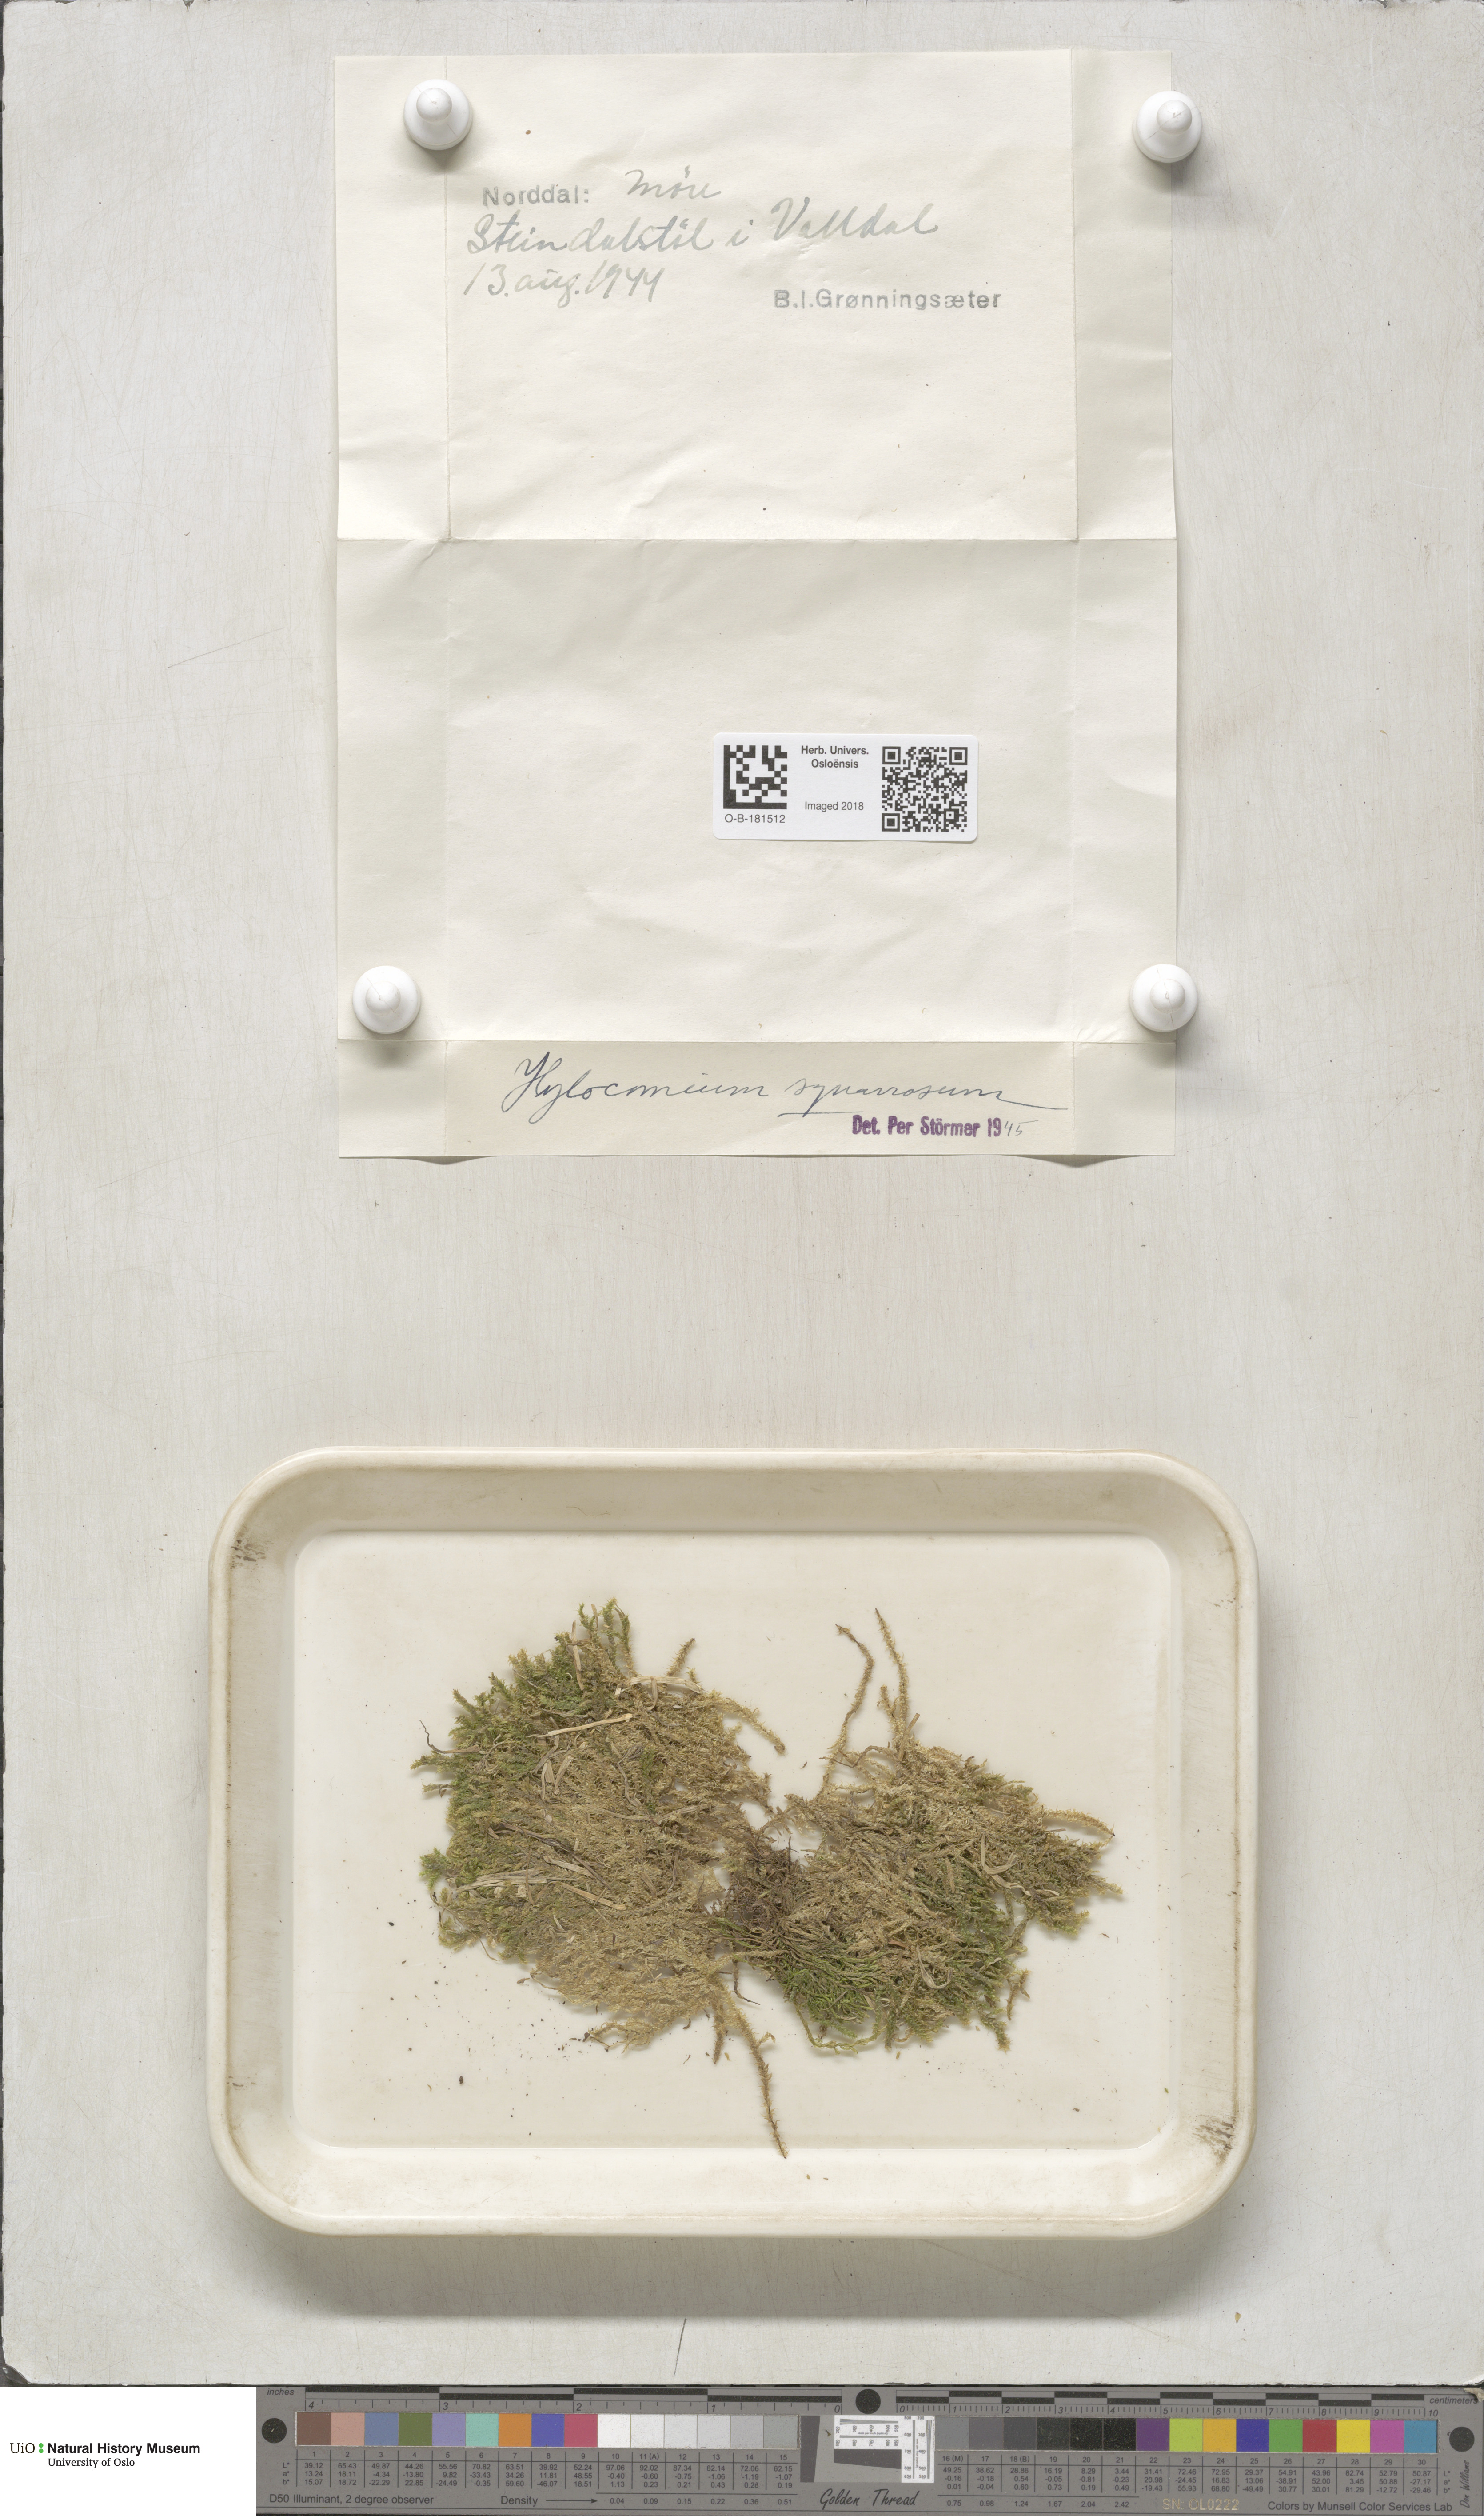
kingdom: Plantae
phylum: Bryophyta
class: Bryopsida
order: Hypnales
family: Hylocomiaceae
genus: Rhytidiadelphus
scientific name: Rhytidiadelphus squarrosus
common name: Springy turf-moss
